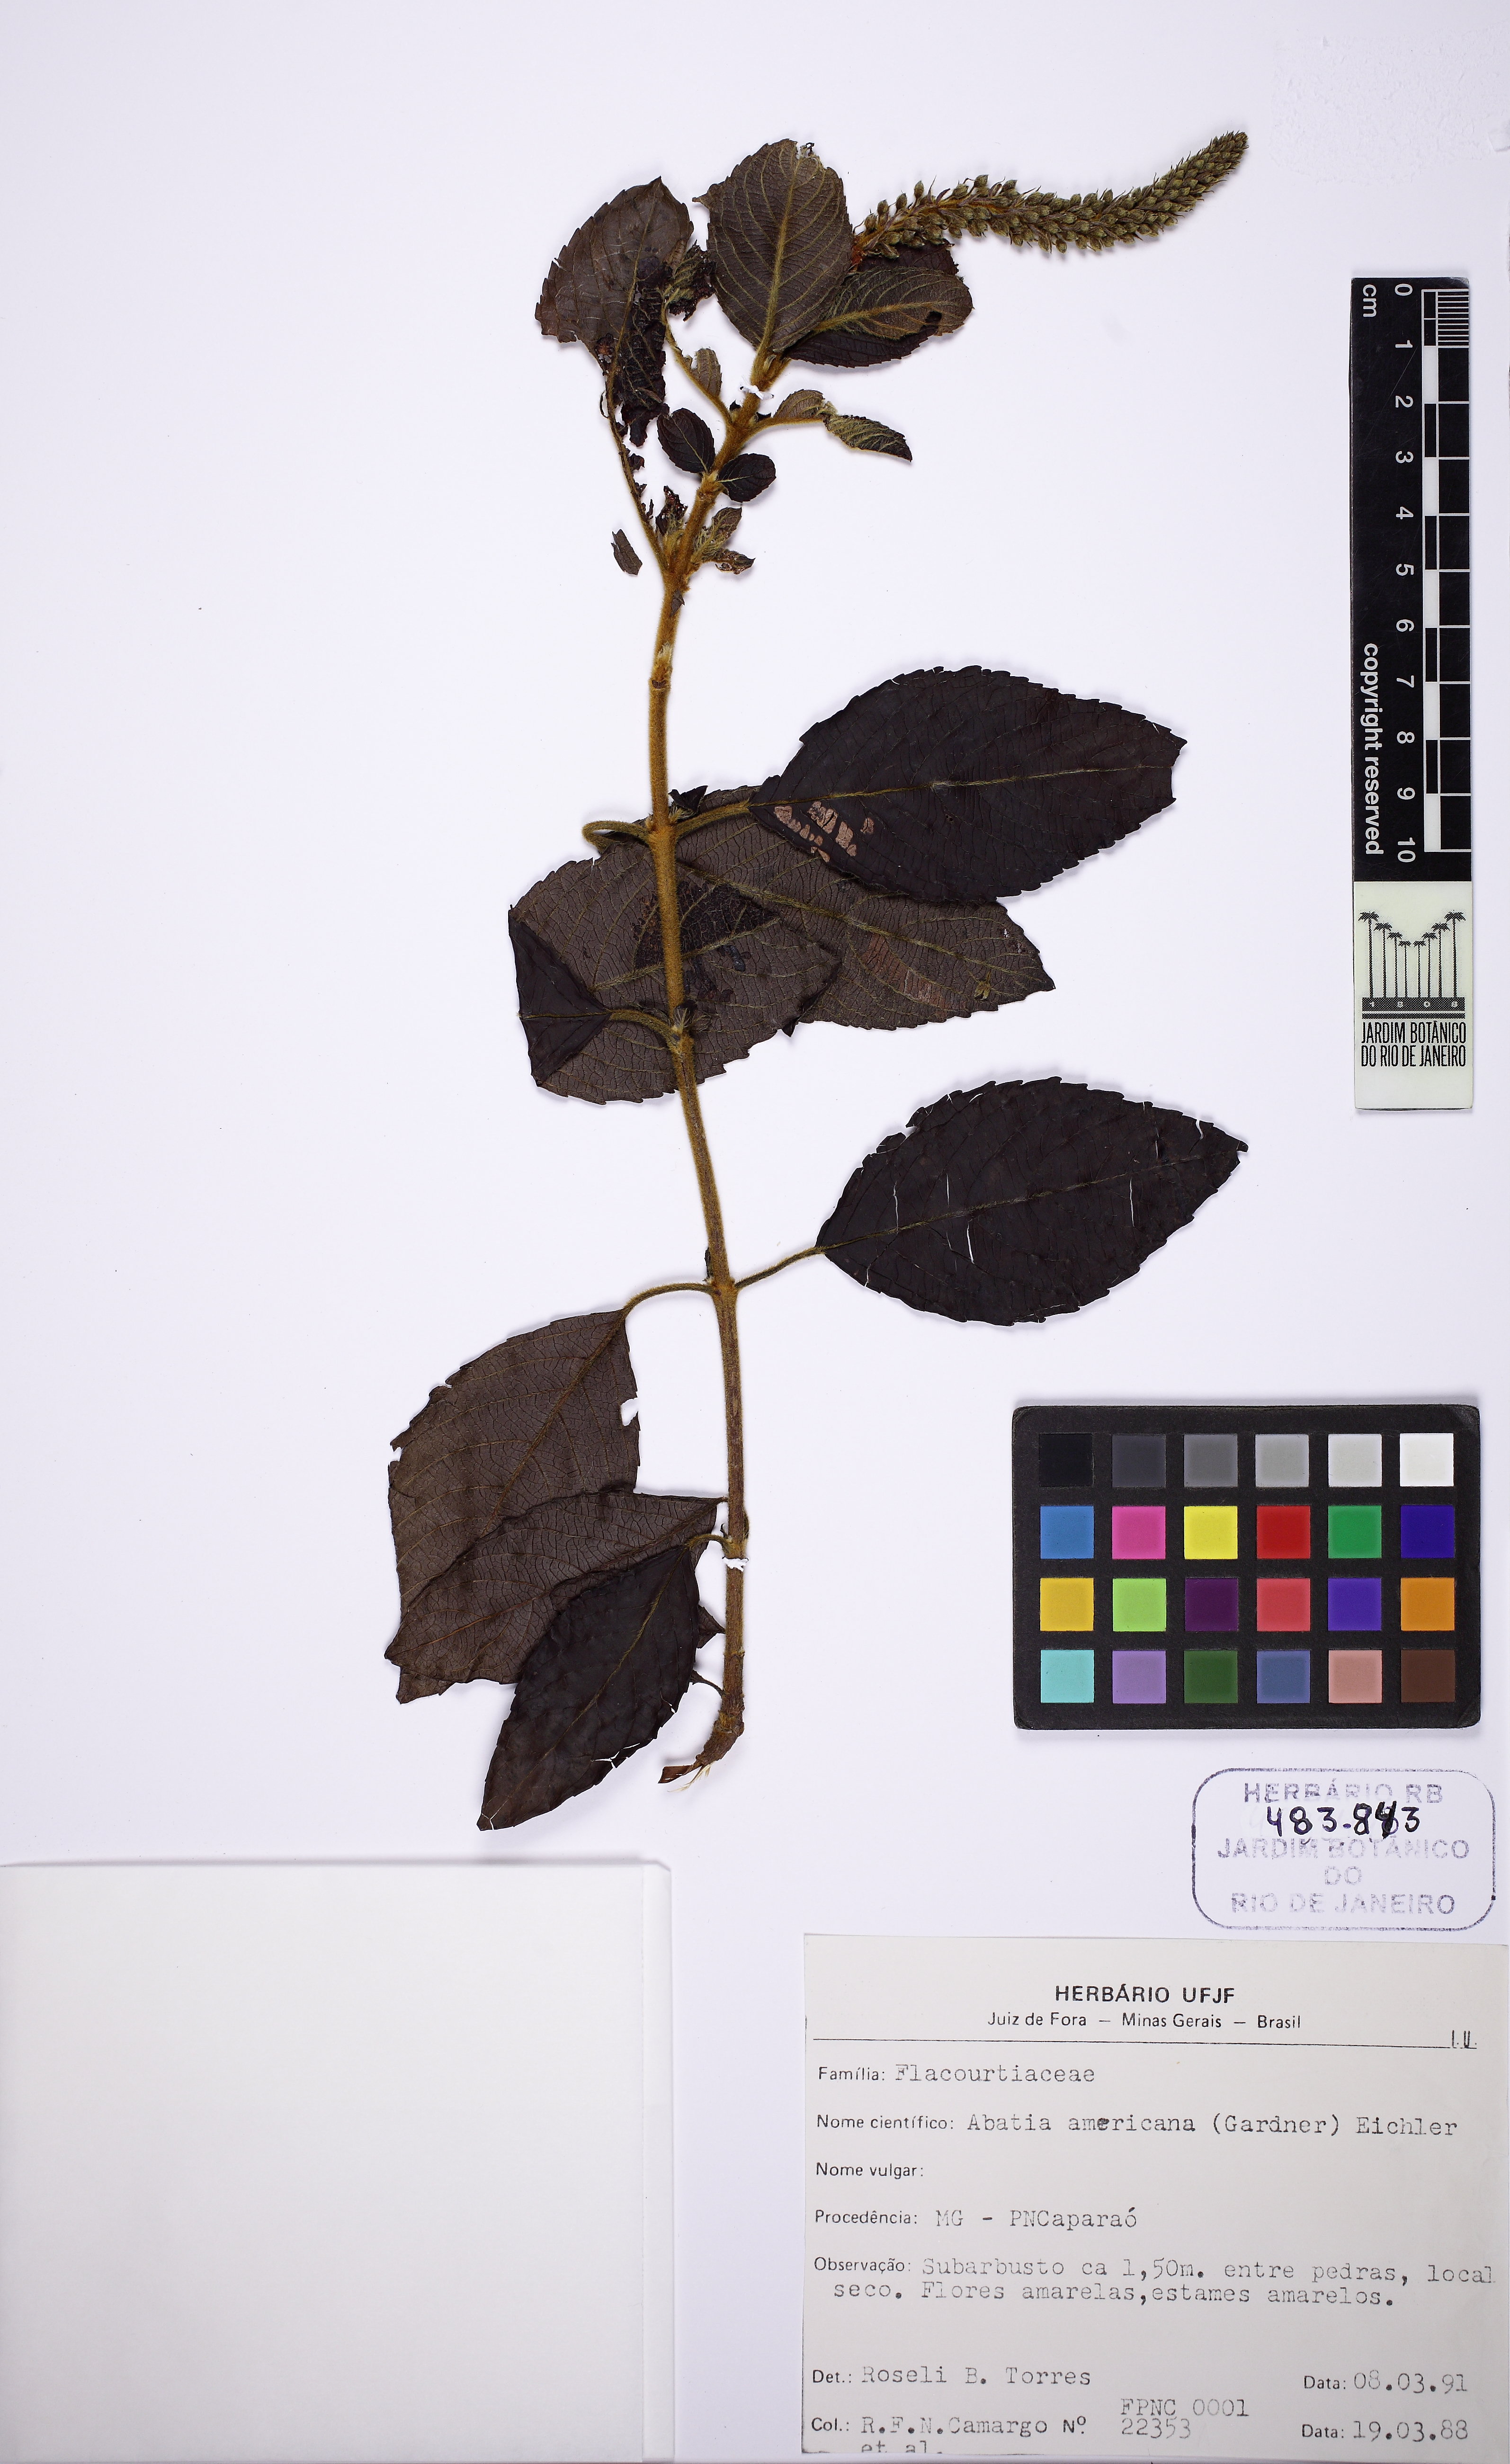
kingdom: Plantae
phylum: Tracheophyta
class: Magnoliopsida
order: Malpighiales
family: Salicaceae
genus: Abatia
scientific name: Abatia americana
